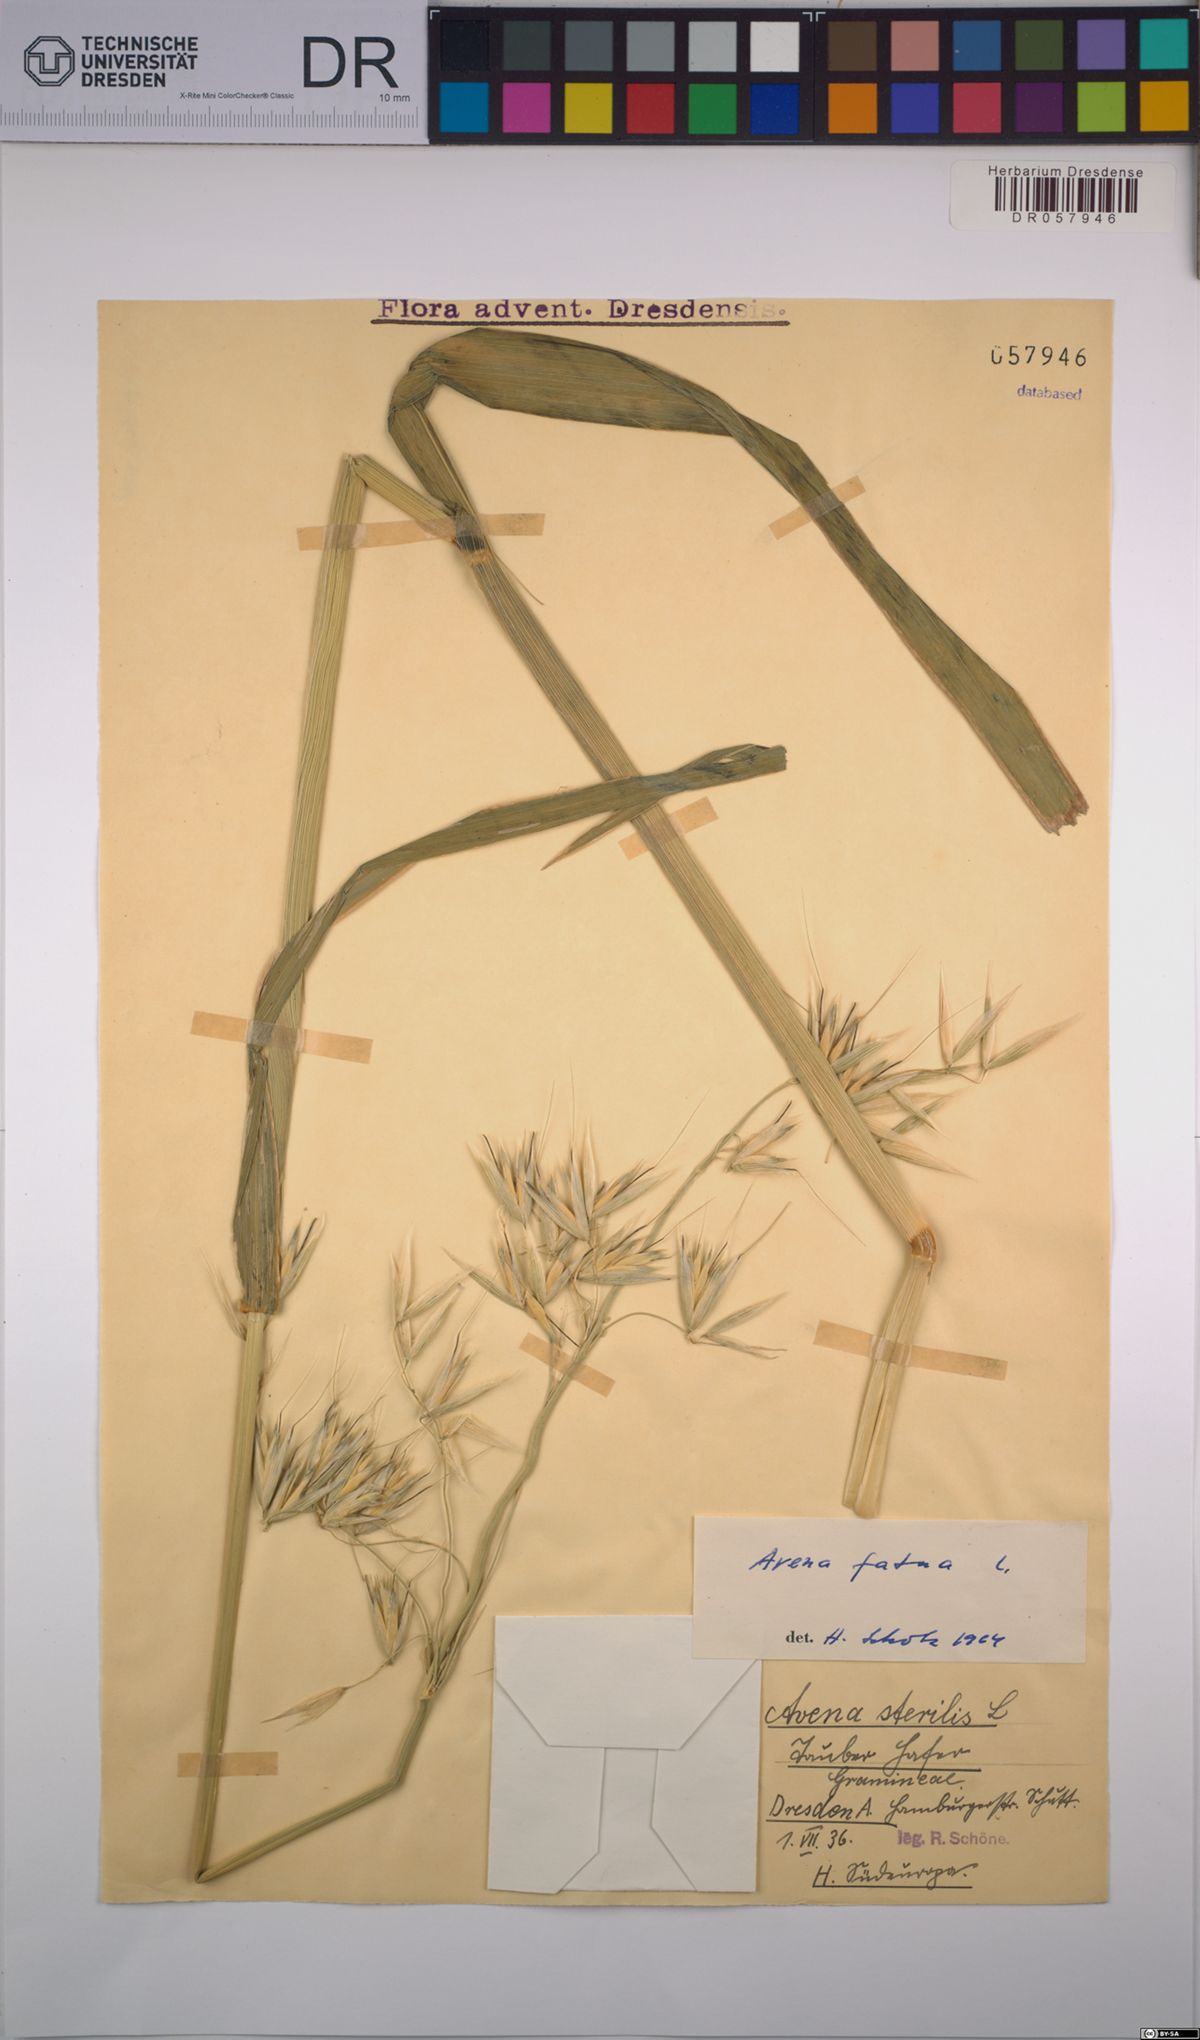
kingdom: Plantae
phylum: Tracheophyta
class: Liliopsida
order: Poales
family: Poaceae
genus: Avena
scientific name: Avena fatua
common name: Wild oat
